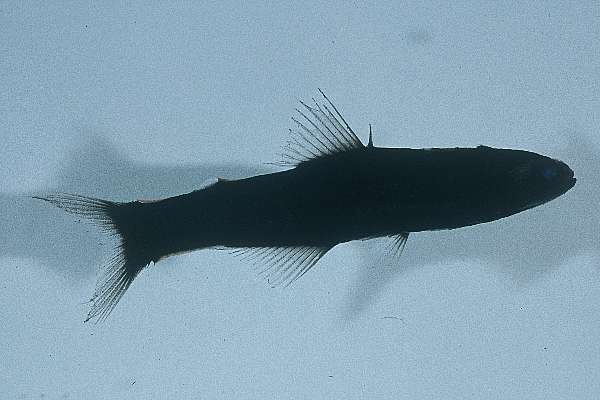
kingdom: Animalia
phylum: Chordata
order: Myctophiformes
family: Myctophidae
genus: Lampanyctus
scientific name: Lampanyctus lepidolychnus
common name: Mermaid lanternfish
